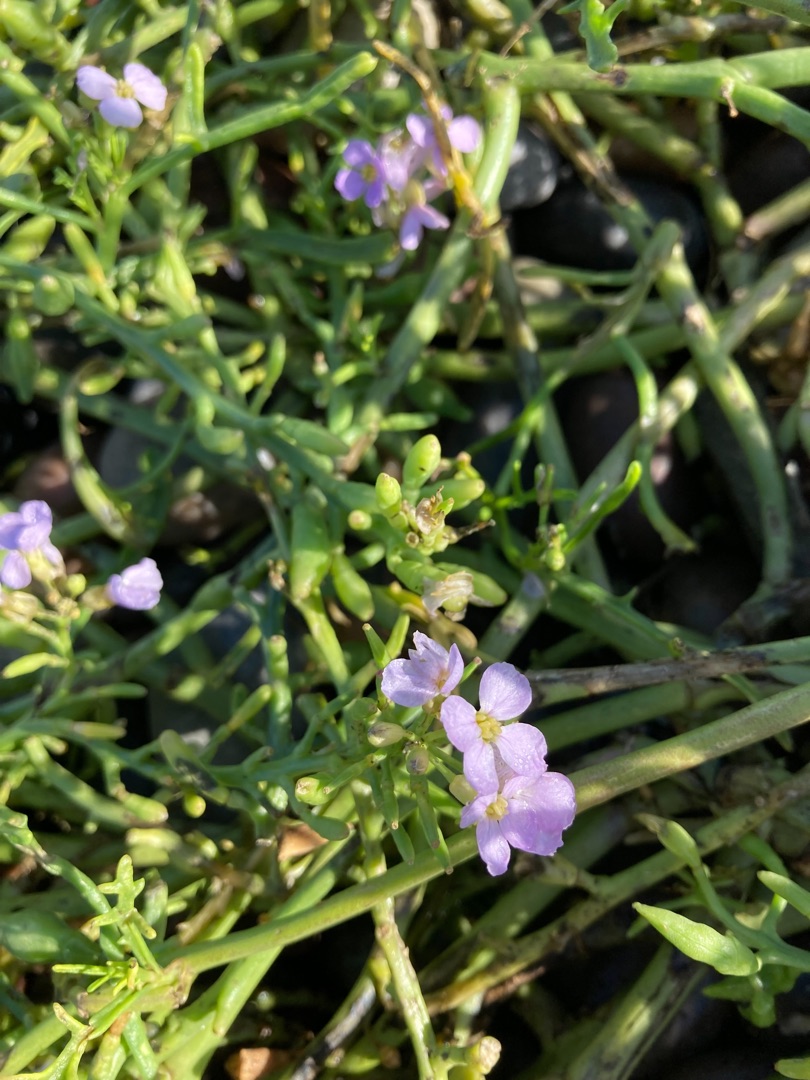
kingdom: Plantae
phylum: Tracheophyta
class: Magnoliopsida
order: Brassicales
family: Brassicaceae
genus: Cakile
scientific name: Cakile maritima
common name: Strandsennep
